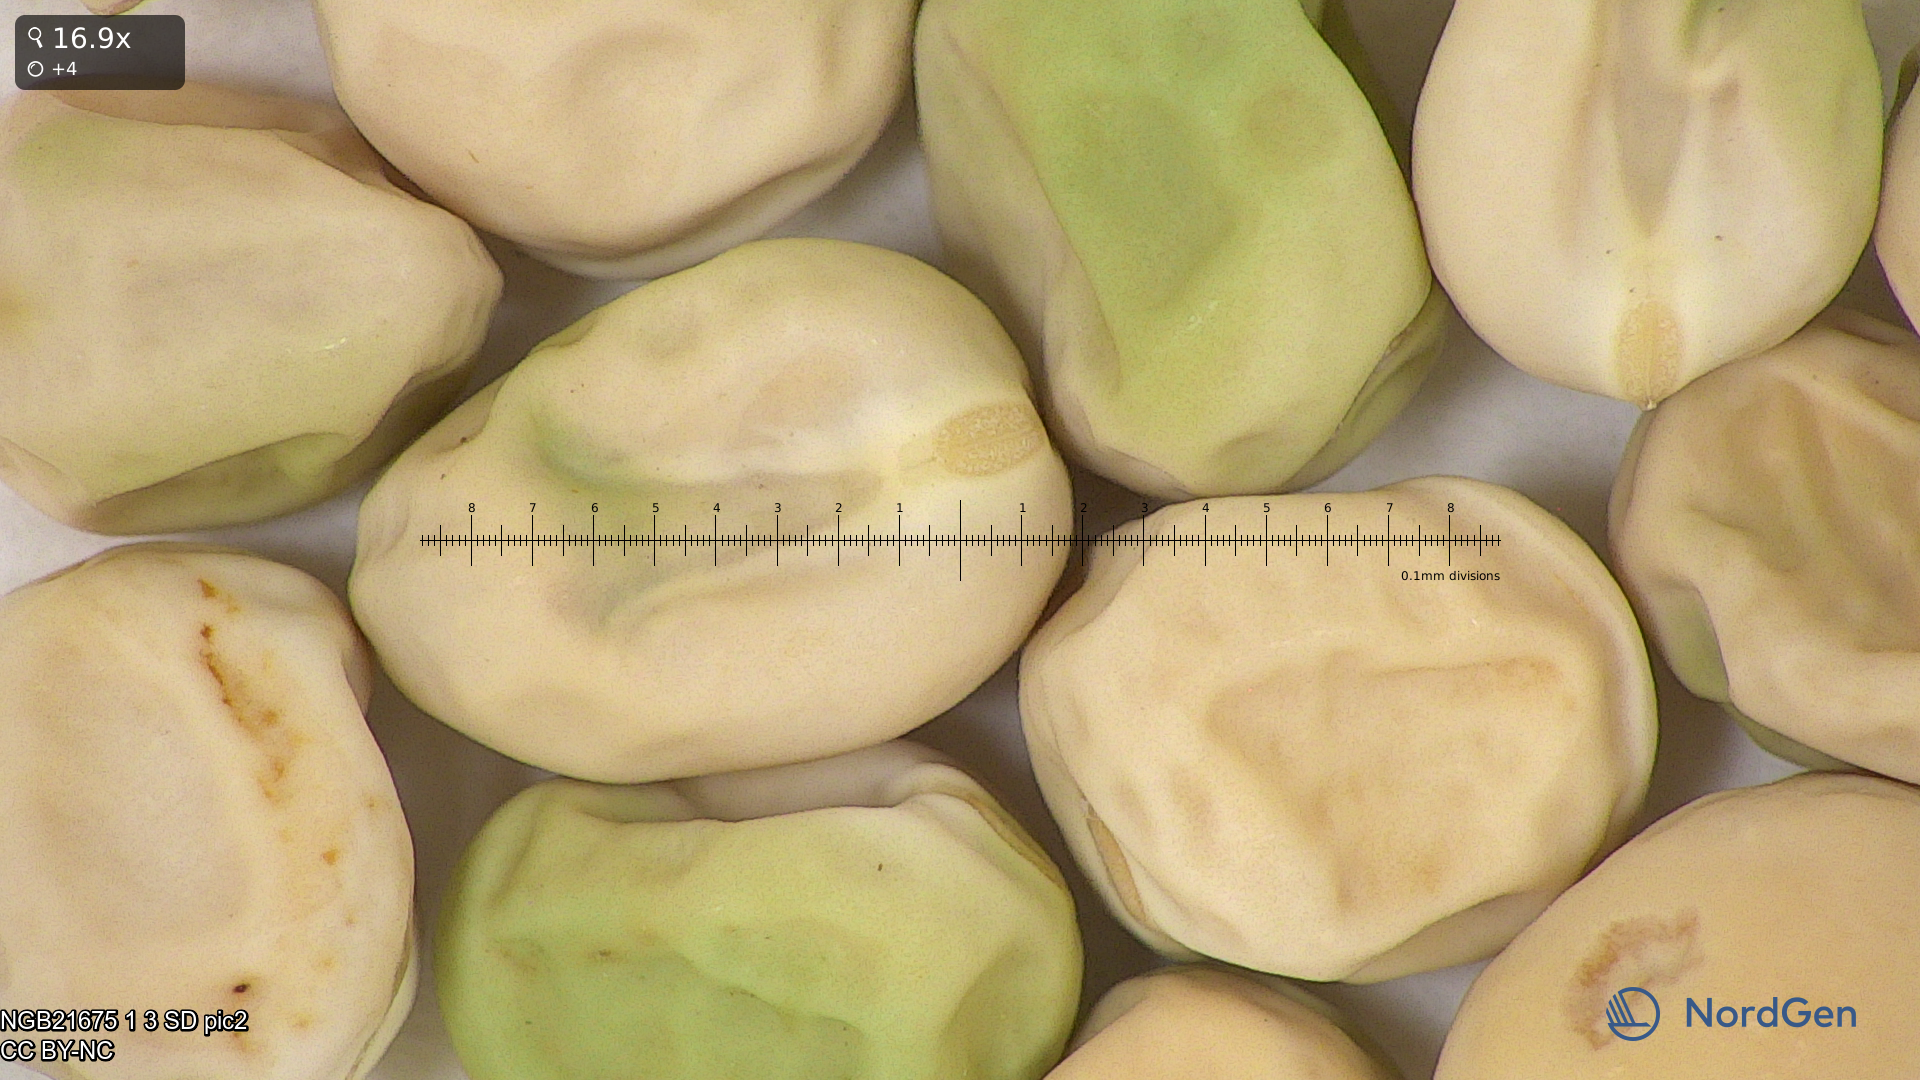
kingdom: Plantae
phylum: Tracheophyta
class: Magnoliopsida
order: Fabales
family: Fabaceae
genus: Lathyrus
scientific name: Lathyrus oleraceus
